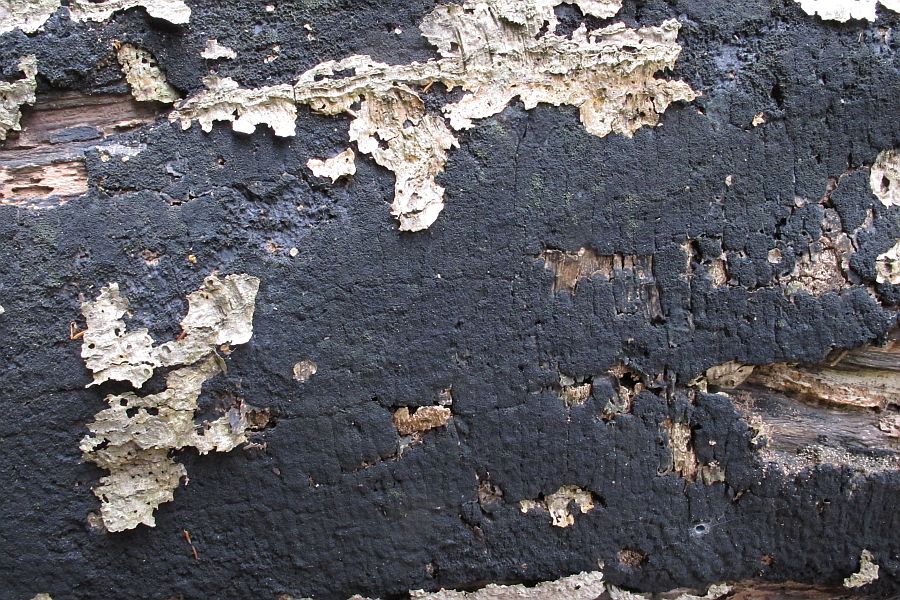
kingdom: Fungi
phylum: Ascomycota
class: Sordariomycetes
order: Xylariales
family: Diatrypaceae
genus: Eutypa
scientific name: Eutypa spinosa
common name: grov kulskorpe
